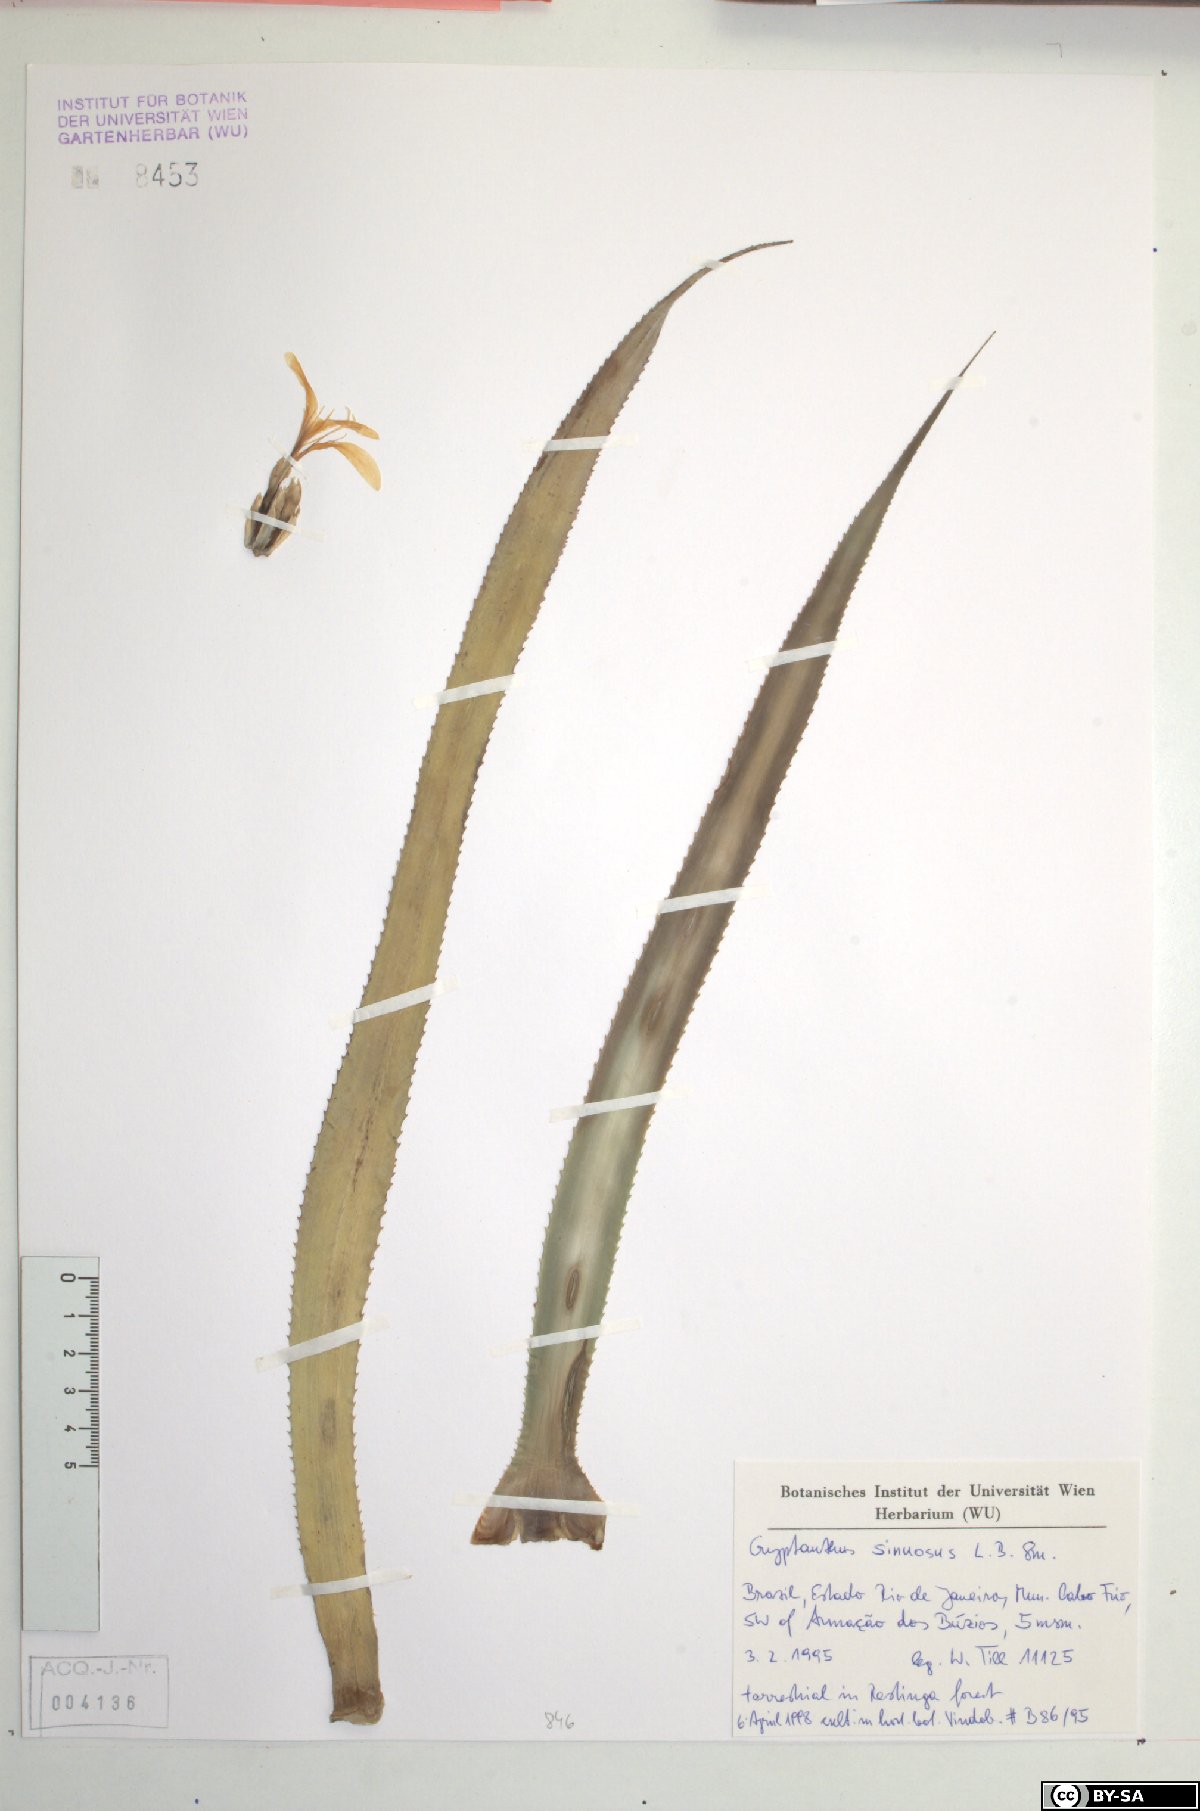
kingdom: Plantae
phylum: Tracheophyta
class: Liliopsida
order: Poales
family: Bromeliaceae
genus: Cryptanthus
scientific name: Cryptanthus acaulis
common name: Starfishplant
